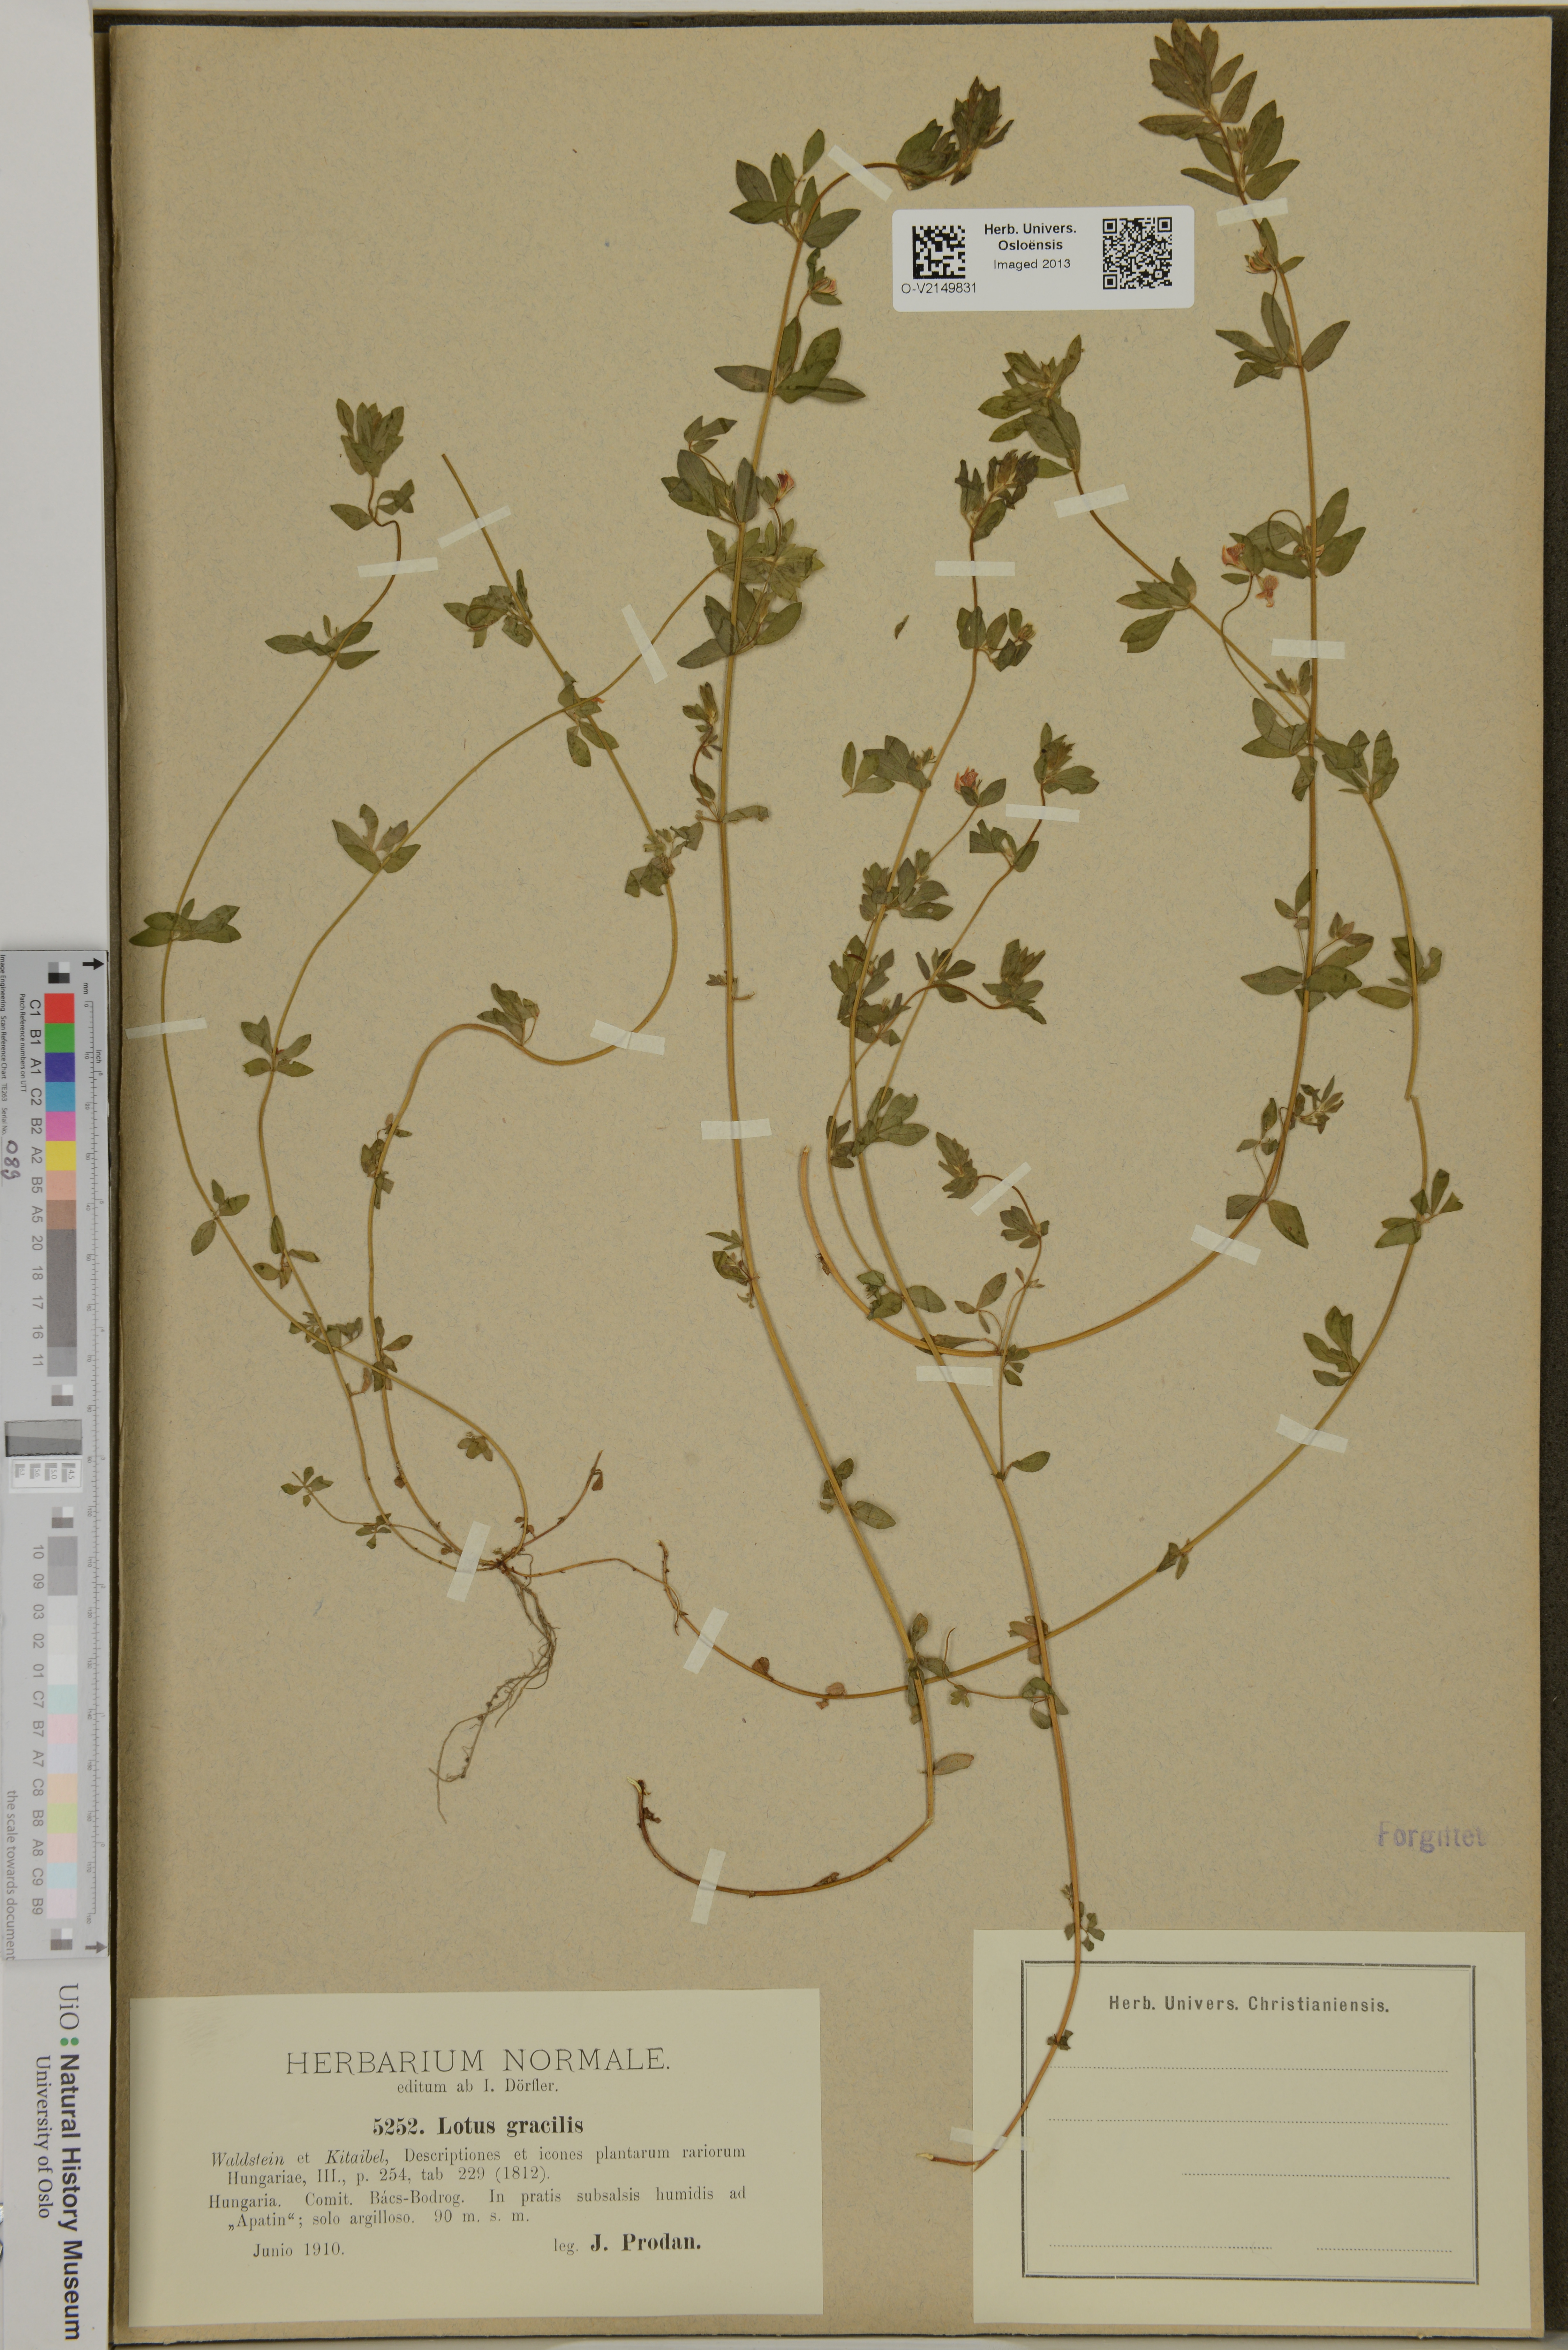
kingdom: Plantae
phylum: Tracheophyta
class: Magnoliopsida
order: Fabales
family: Fabaceae
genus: Lotus
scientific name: Lotus
